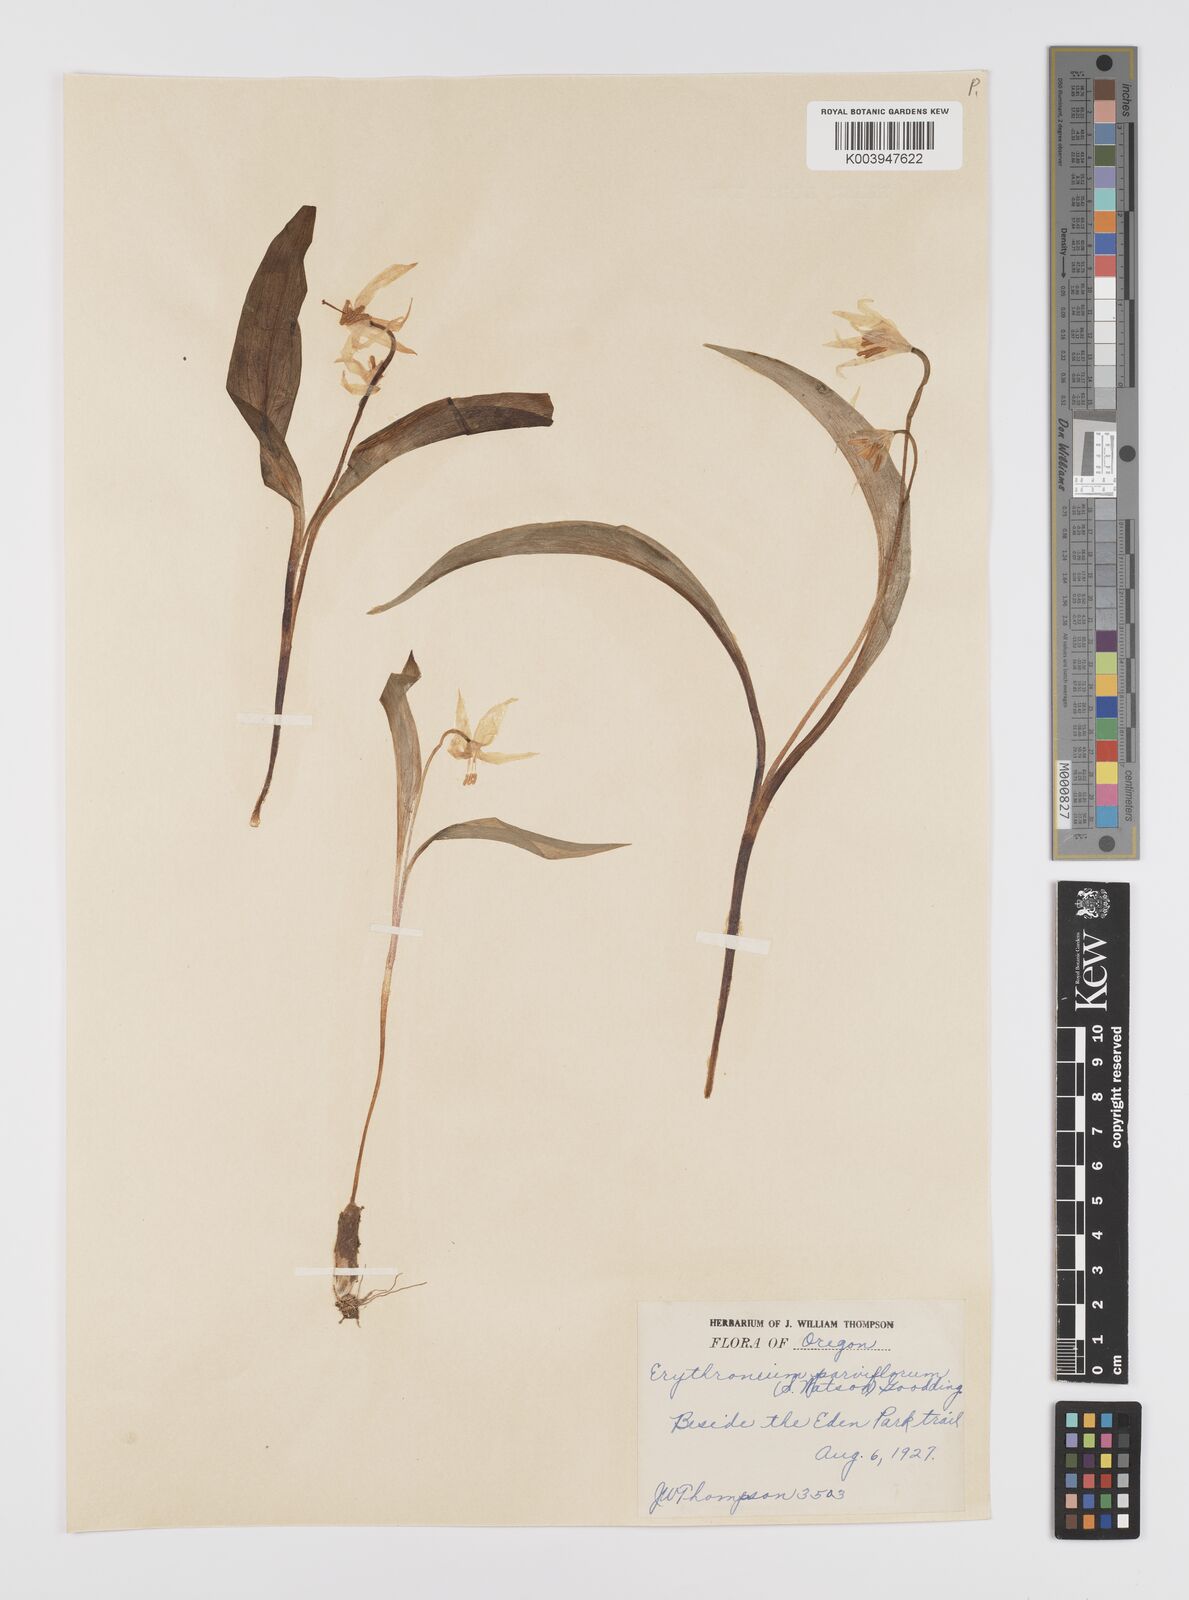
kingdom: Plantae
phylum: Tracheophyta
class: Liliopsida
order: Liliales
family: Liliaceae
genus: Erythronium
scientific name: Erythronium grandiflorum
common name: Avalanche-lily
